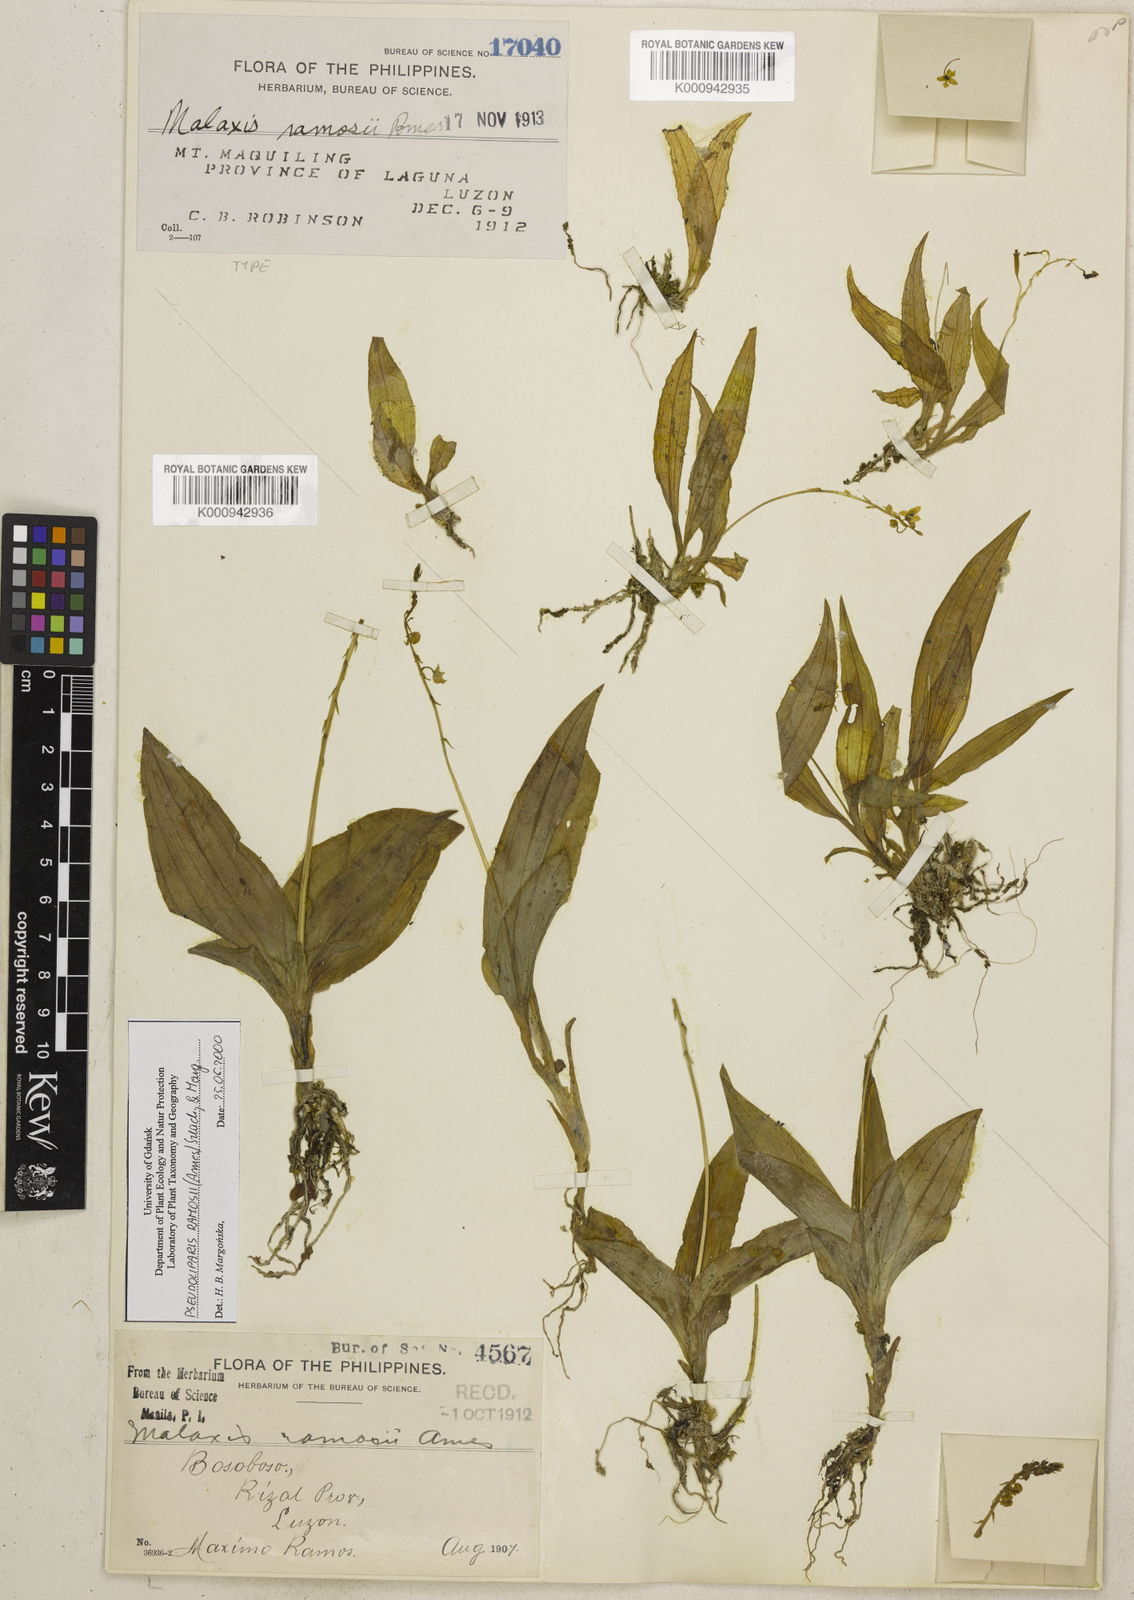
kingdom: Plantae
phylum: Tracheophyta
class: Liliopsida
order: Asparagales
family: Orchidaceae
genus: Crepidium
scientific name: Crepidium moluccanum
